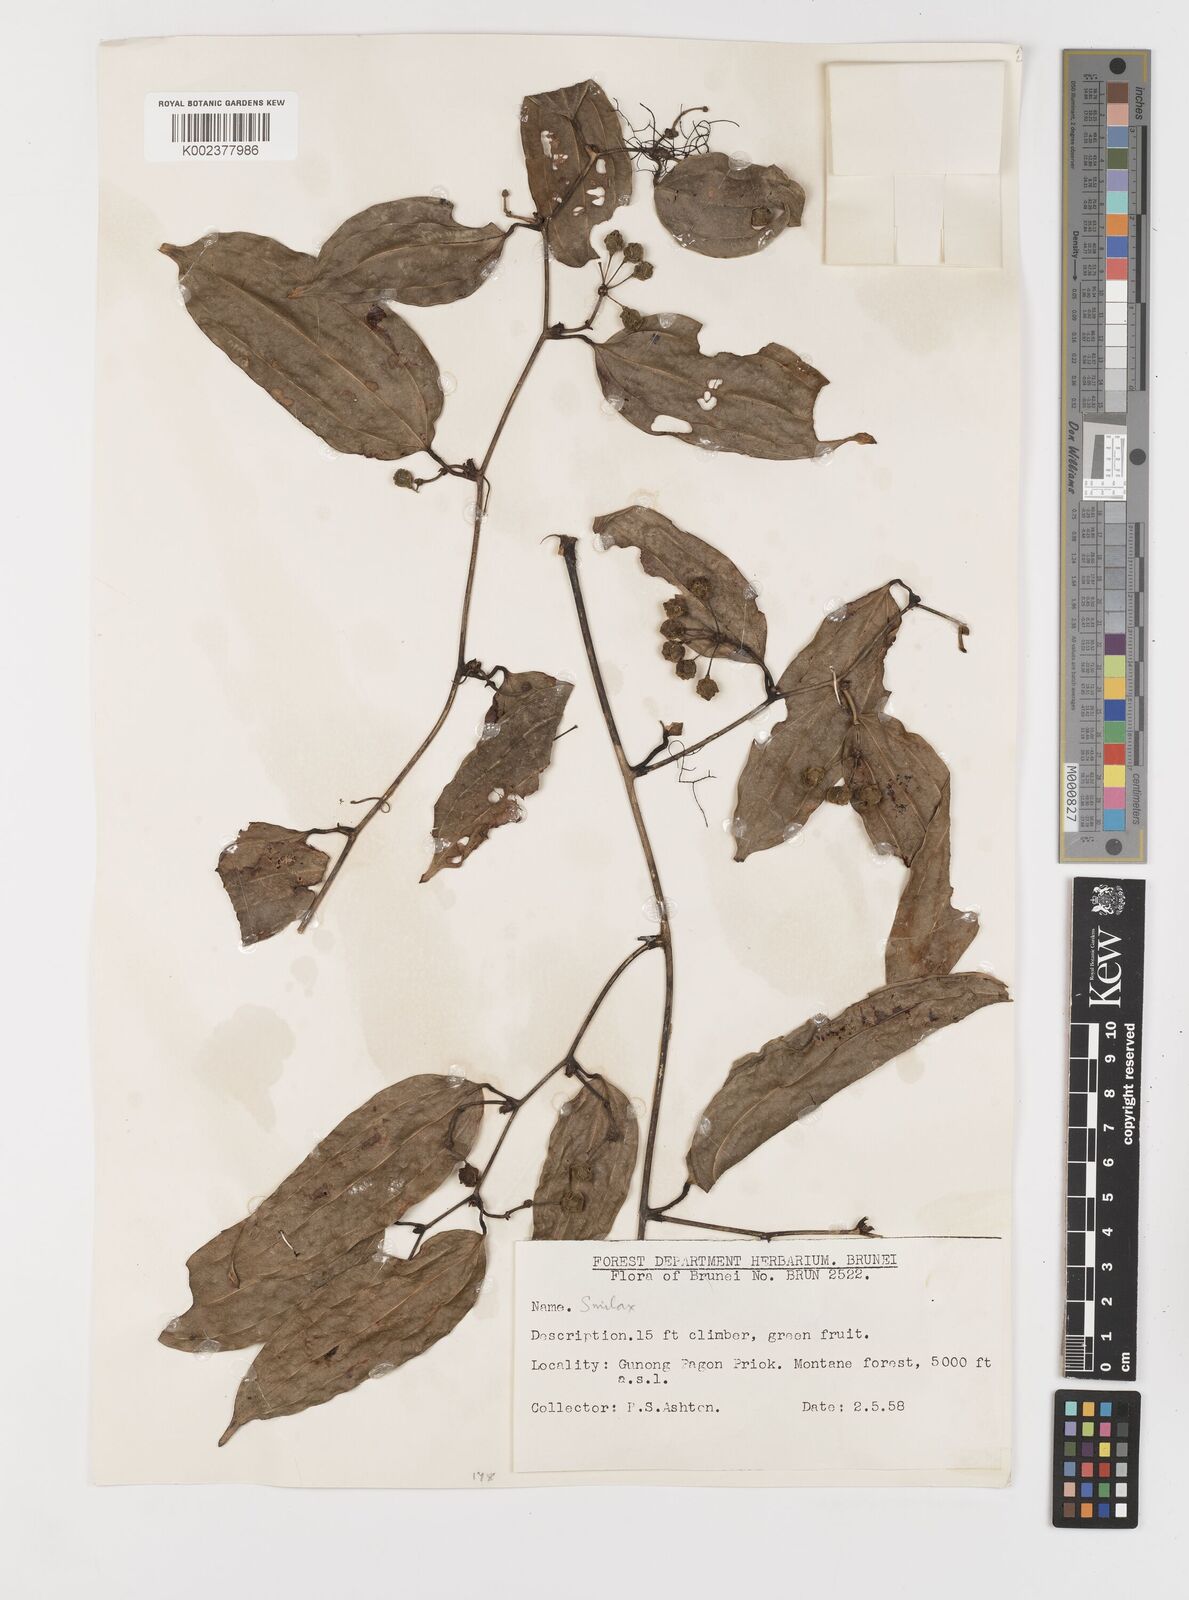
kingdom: Plantae
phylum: Tracheophyta
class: Liliopsida
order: Liliales
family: Smilacaceae
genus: Smilax
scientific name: Smilax
